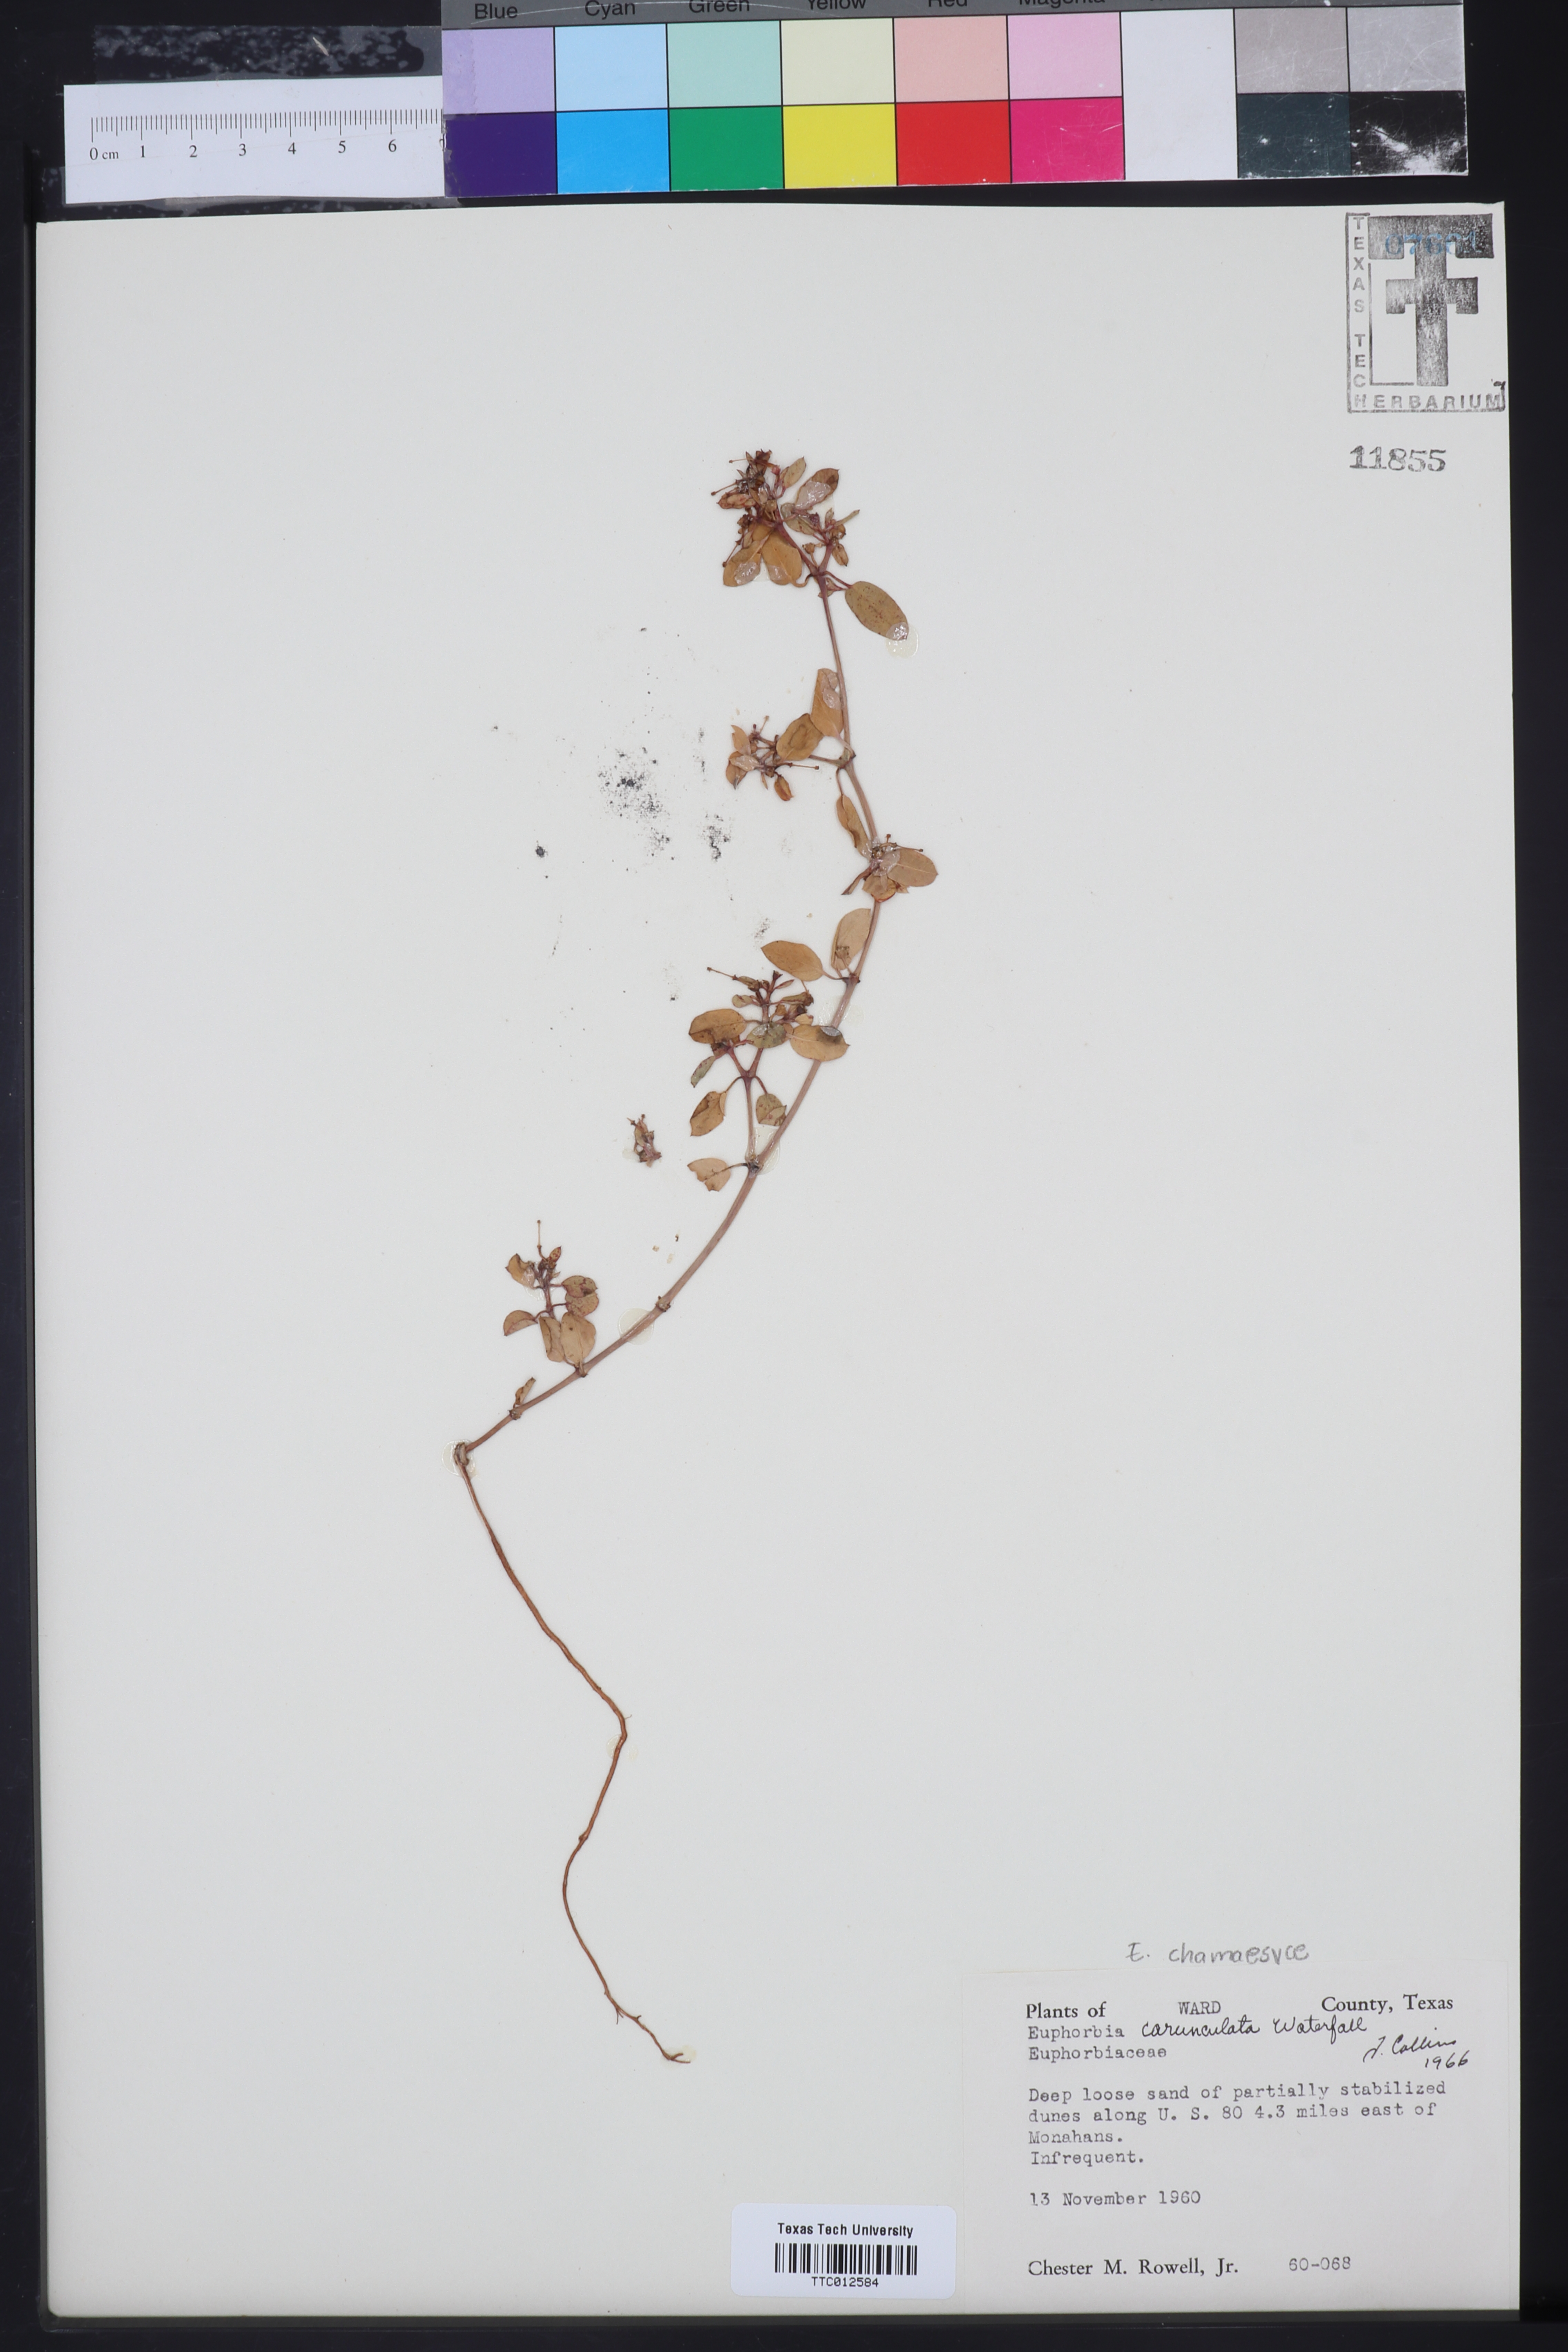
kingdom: Plantae
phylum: Tracheophyta
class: Magnoliopsida
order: Malpighiales
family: Euphorbiaceae
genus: Euphorbia
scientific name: Euphorbia carunculata
